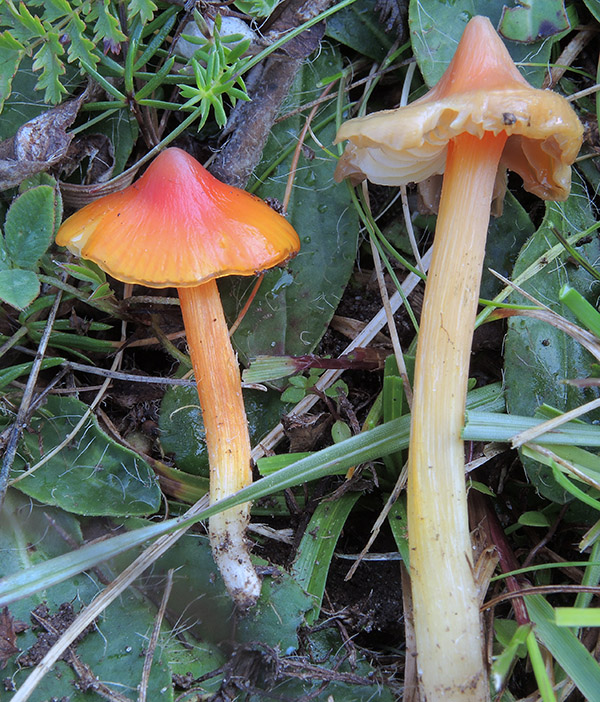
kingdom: Fungi
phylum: Basidiomycota
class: Agaricomycetes
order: Agaricales
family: Hygrophoraceae
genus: Hygrocybe
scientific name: Hygrocybe acutoconica
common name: spidspuklet vokshat
